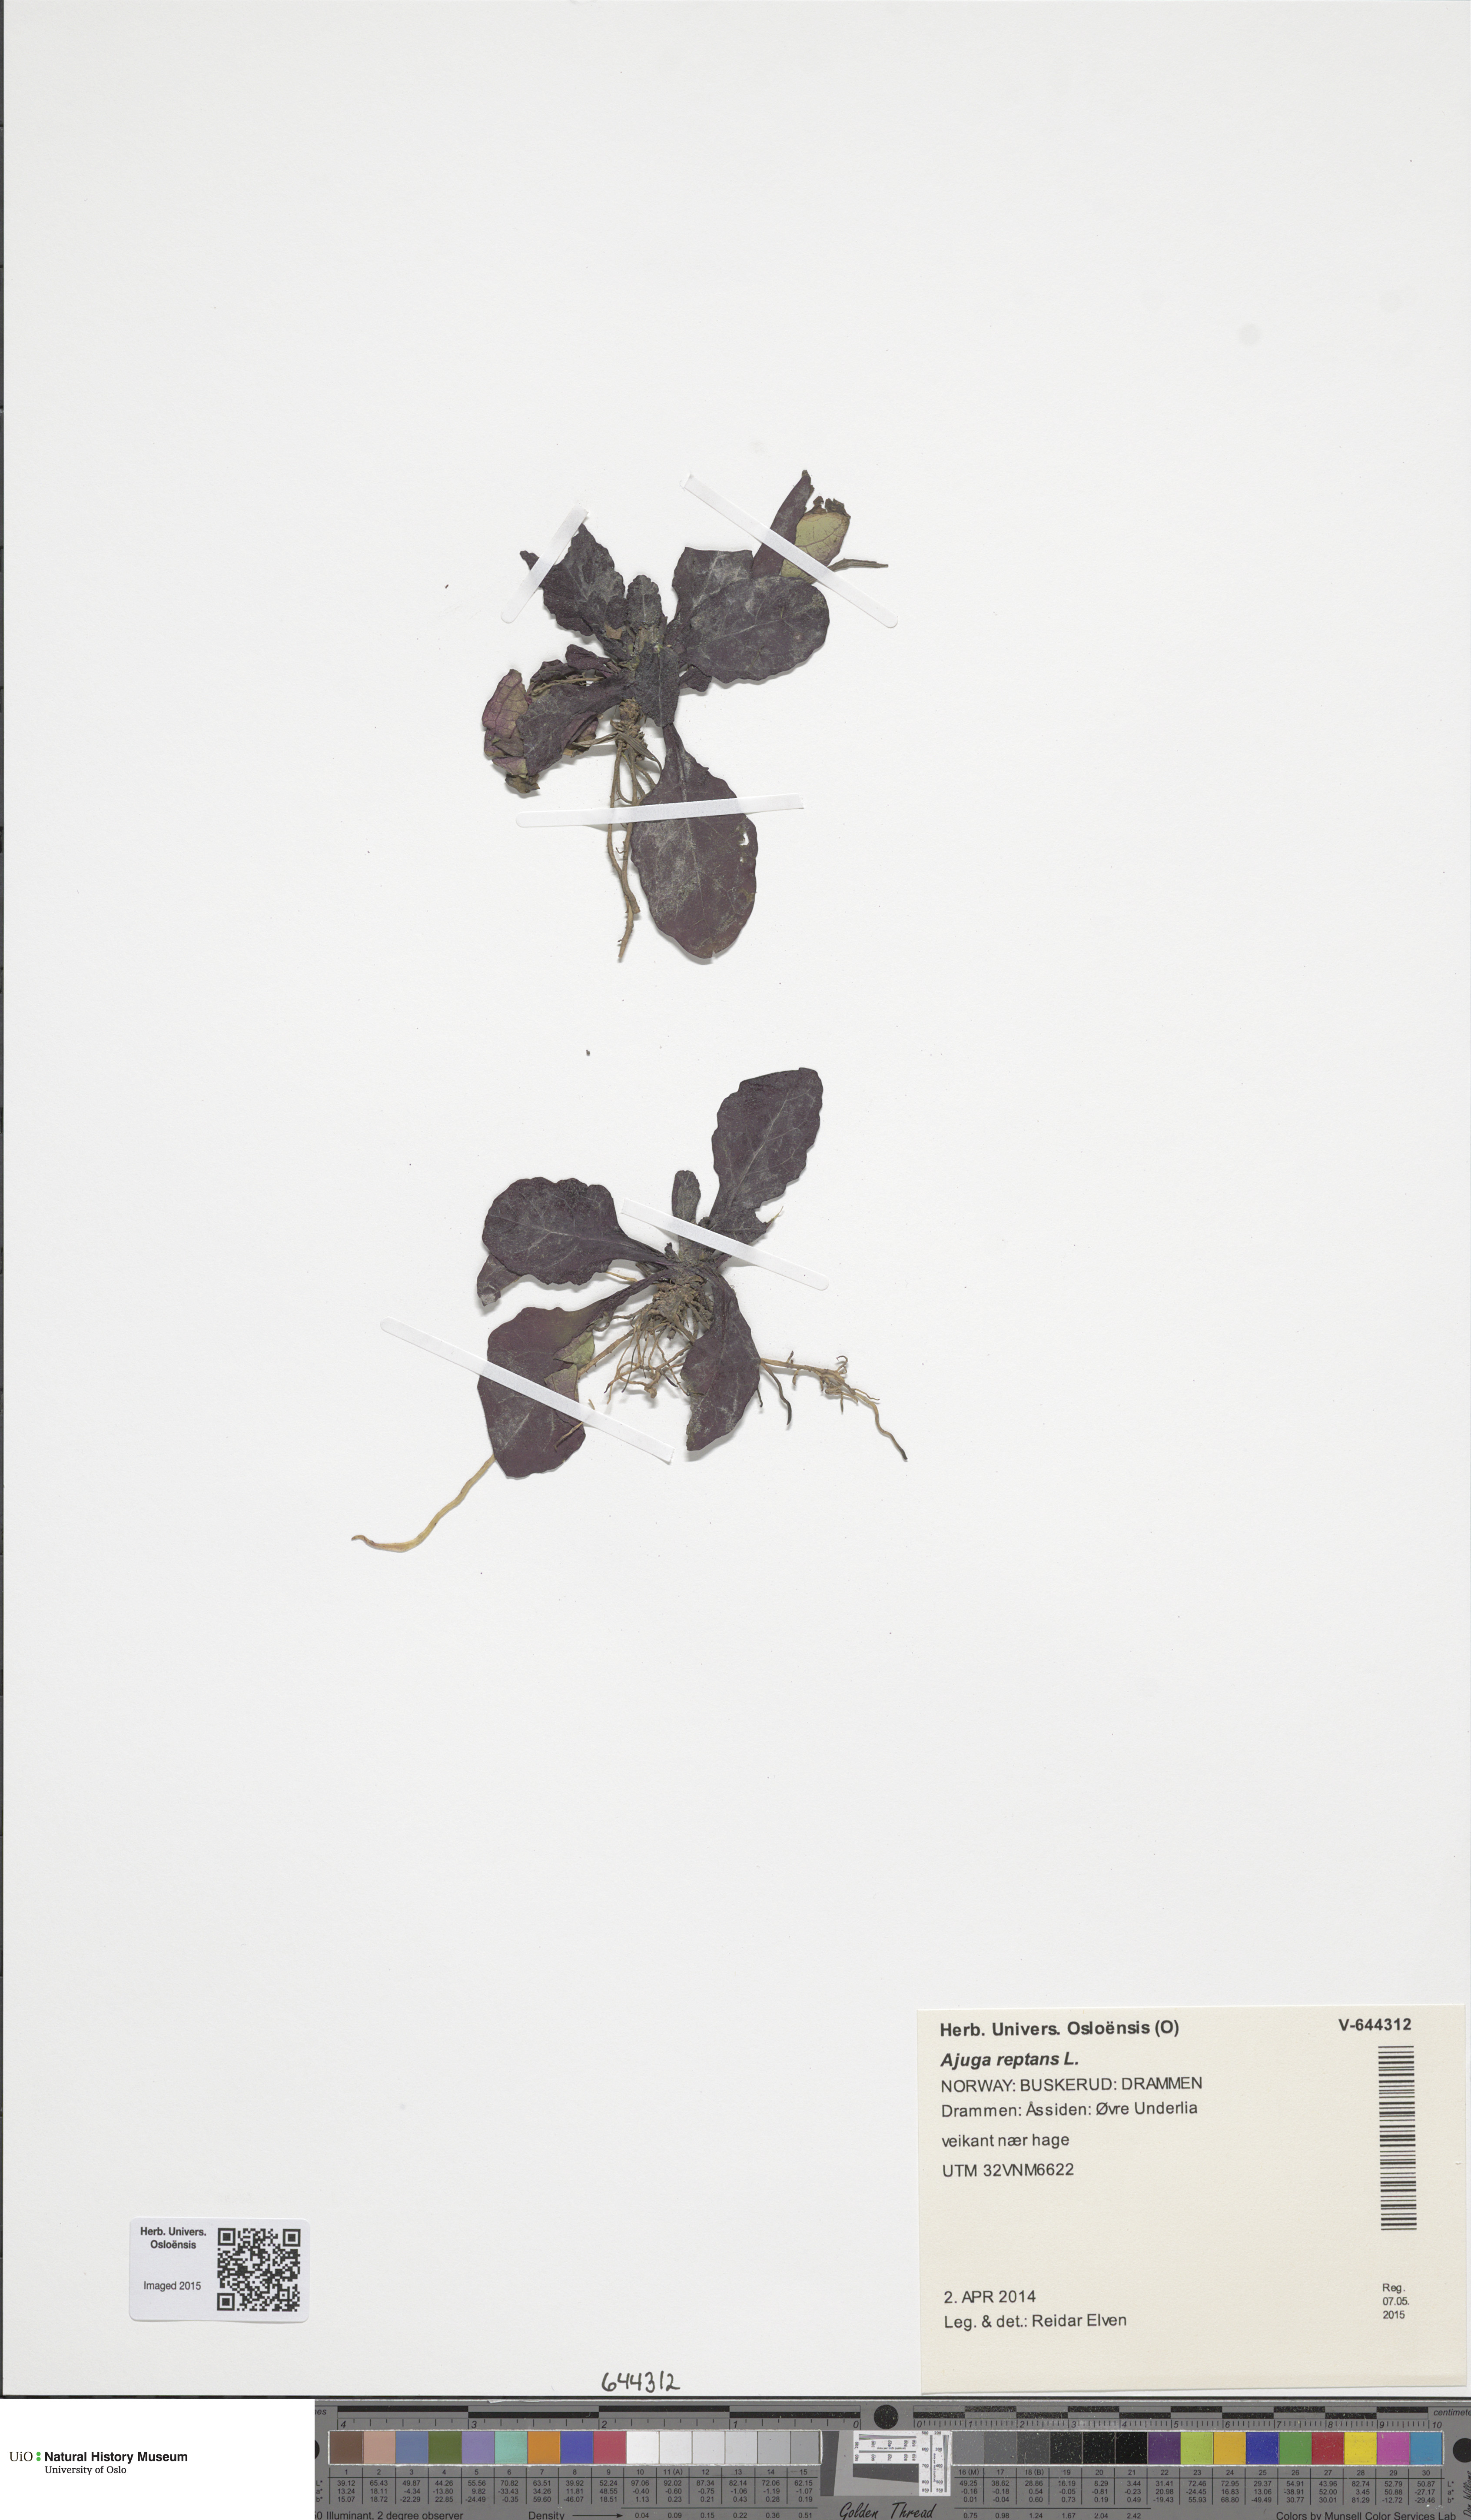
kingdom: Plantae
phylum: Tracheophyta
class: Magnoliopsida
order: Lamiales
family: Lamiaceae
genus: Ajuga
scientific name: Ajuga reptans
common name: Bugle
